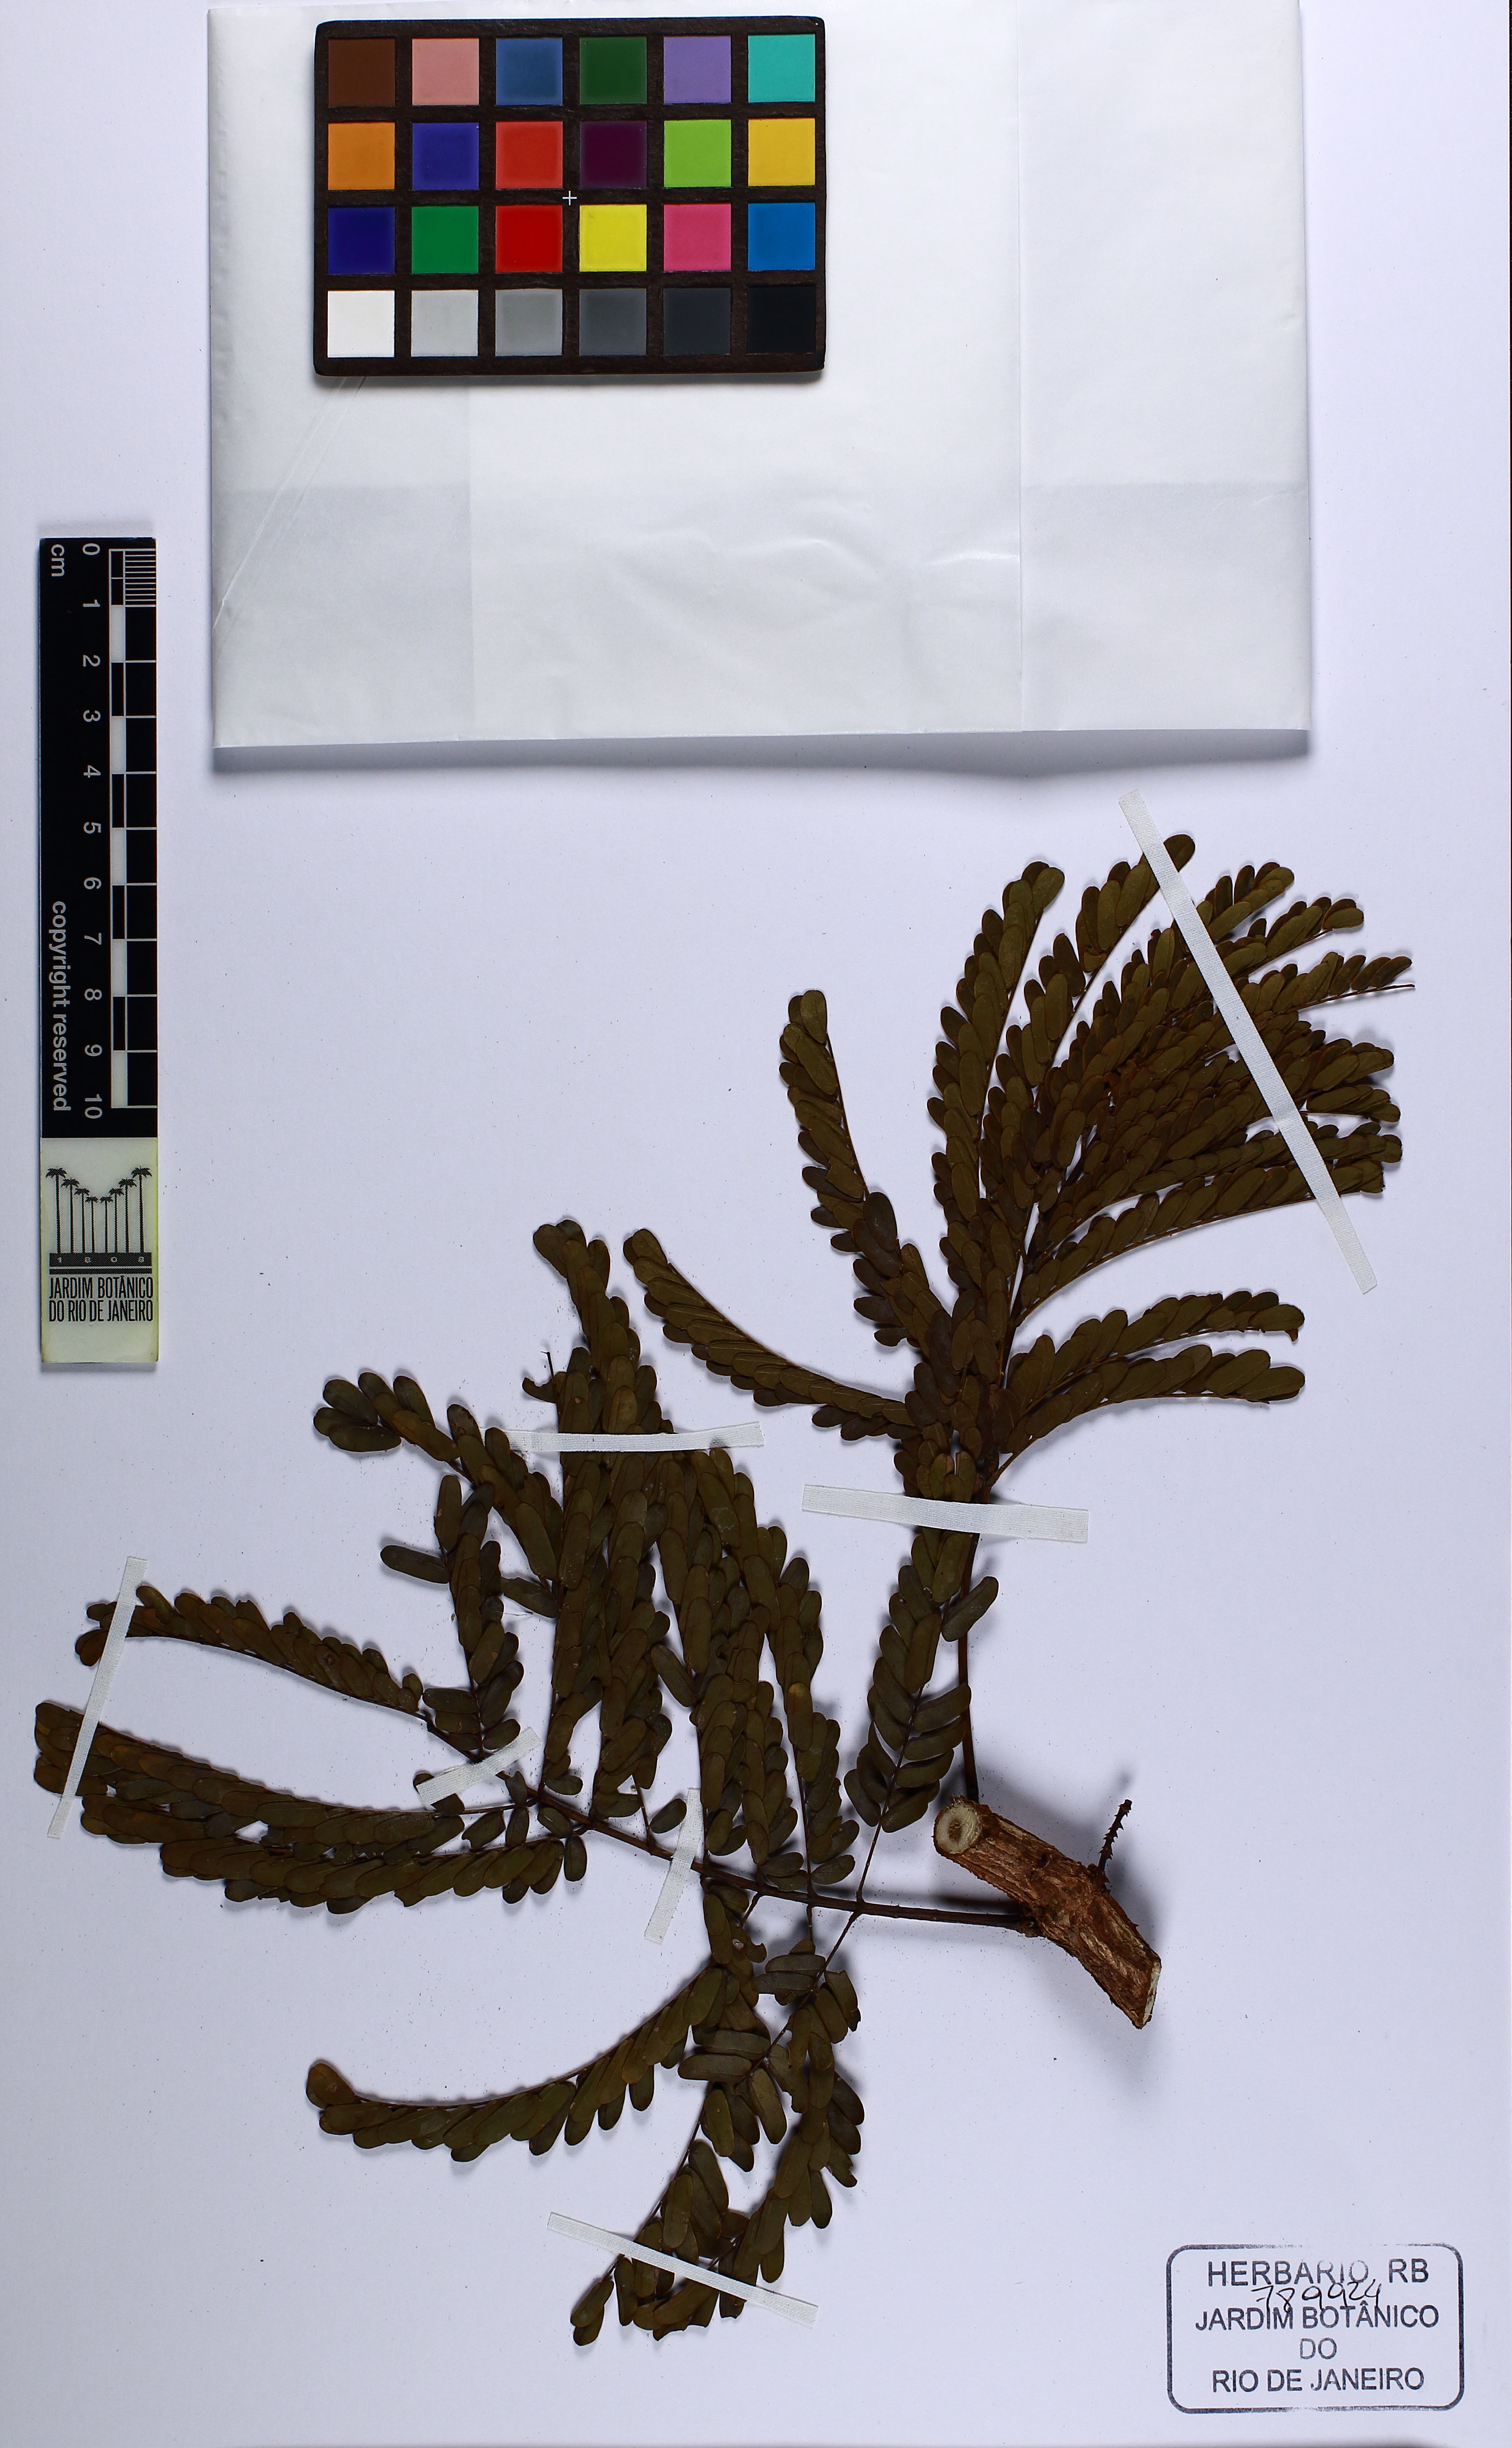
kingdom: Plantae
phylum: Tracheophyta
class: Magnoliopsida
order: Fabales
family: Fabaceae
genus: Senegalia
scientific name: Senegalia alemquerensis
